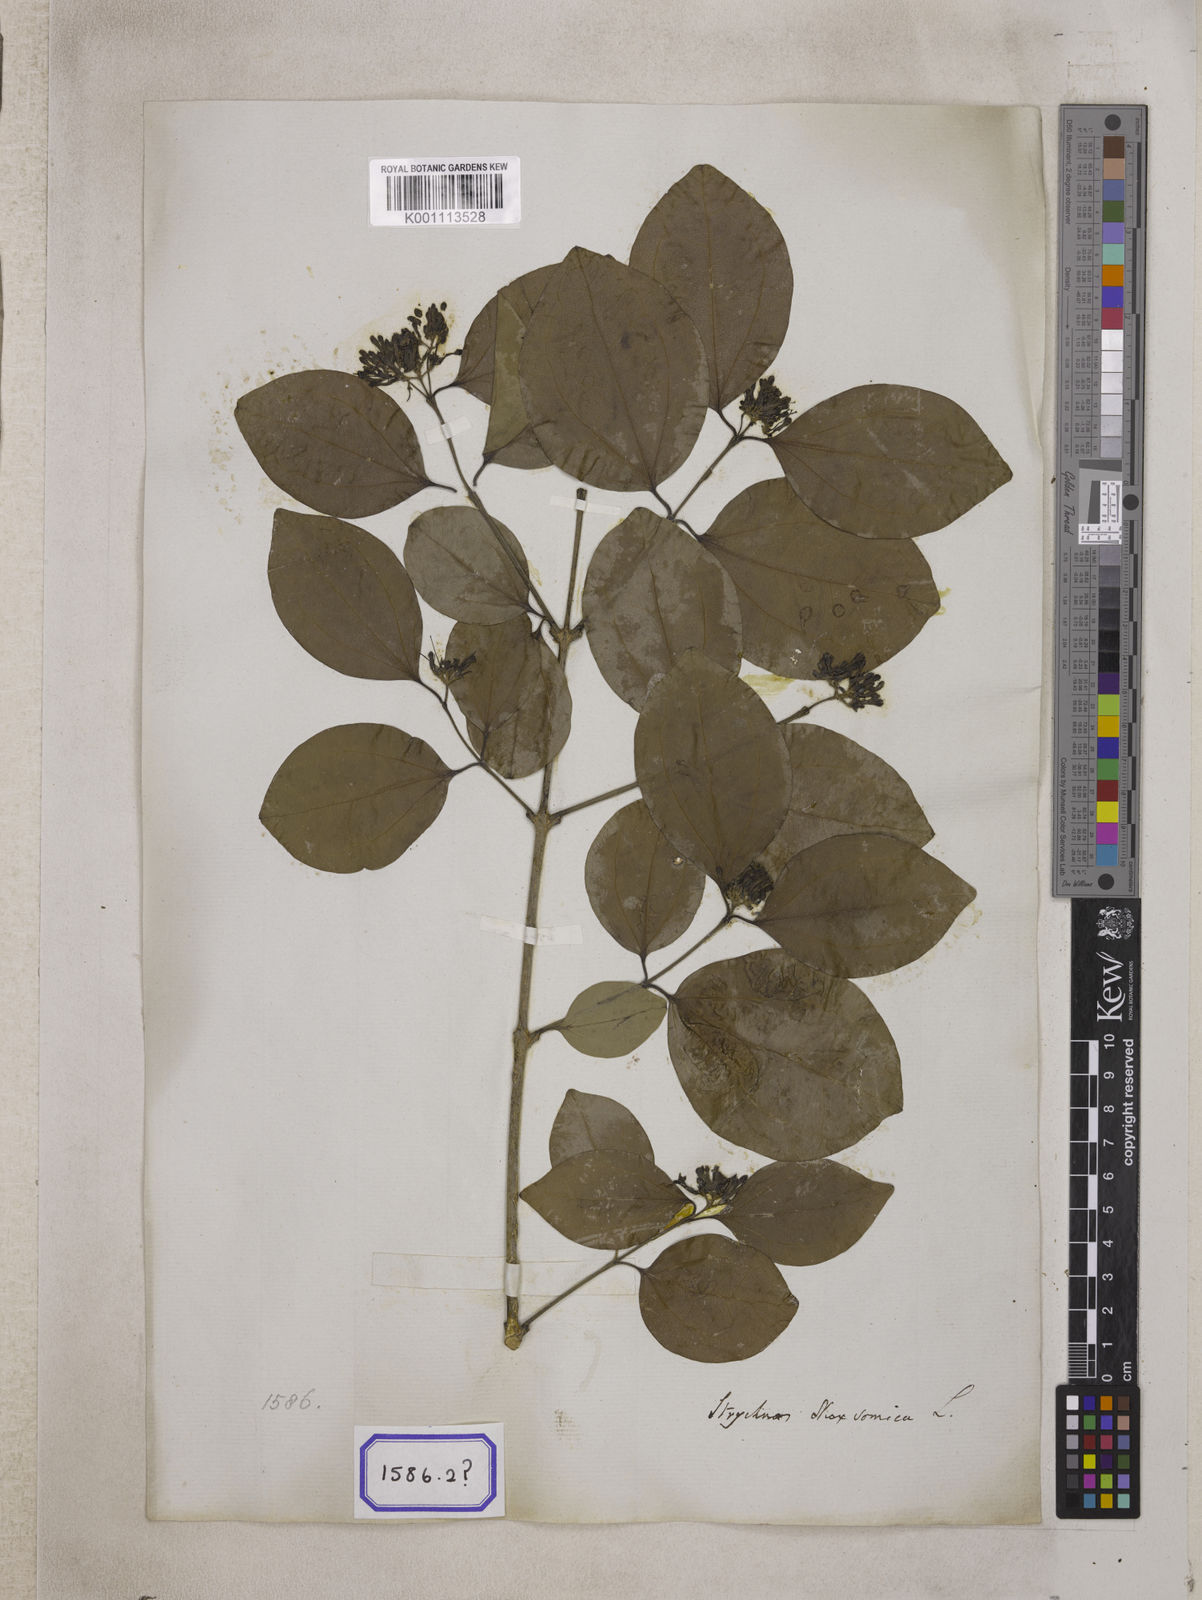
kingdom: Plantae
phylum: Tracheophyta
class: Magnoliopsida
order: Gentianales
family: Loganiaceae
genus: Strychnos
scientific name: Strychnos nux-vomica
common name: Strychninetree
